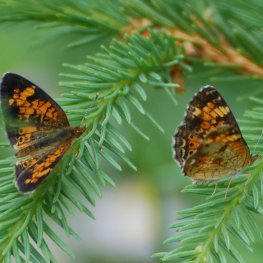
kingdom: Animalia
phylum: Arthropoda
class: Insecta
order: Lepidoptera
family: Nymphalidae
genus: Phyciodes
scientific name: Phyciodes tharos
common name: Northern Crescent
